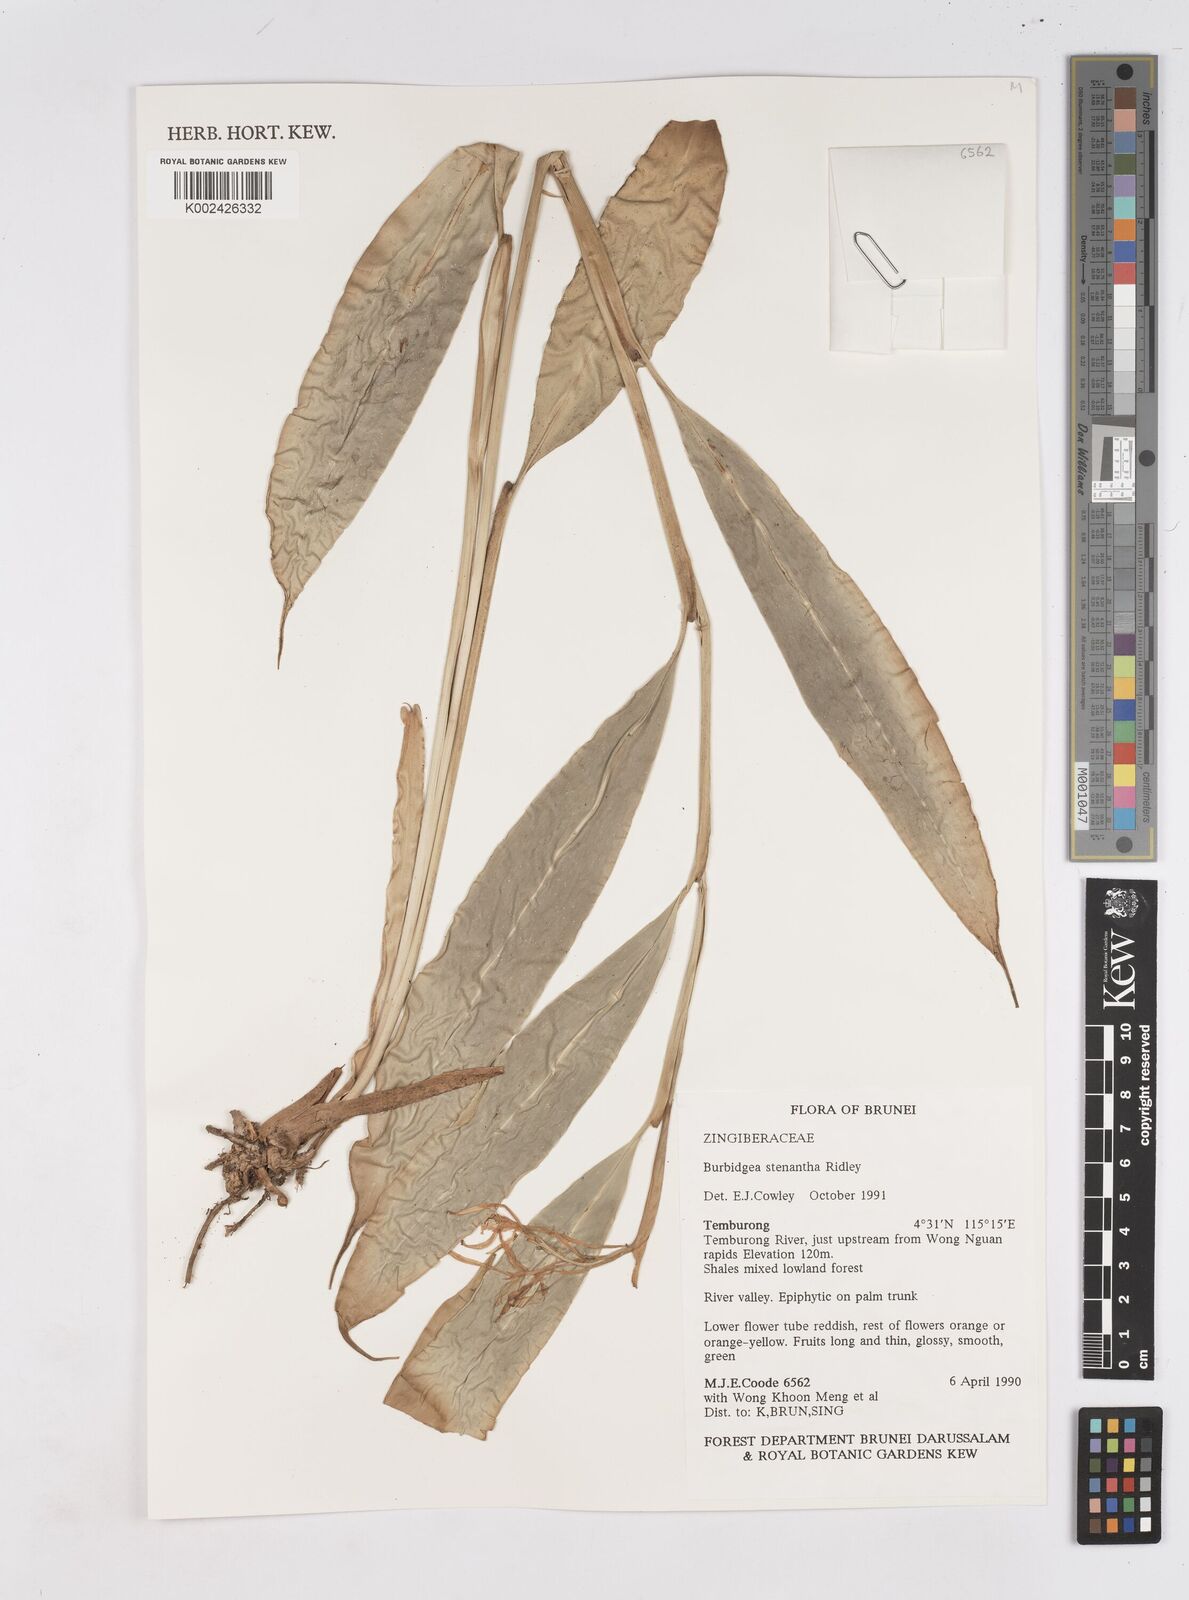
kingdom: Plantae
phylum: Tracheophyta
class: Liliopsida
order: Zingiberales
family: Zingiberaceae
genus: Burbidgea
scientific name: Burbidgea stenantha
